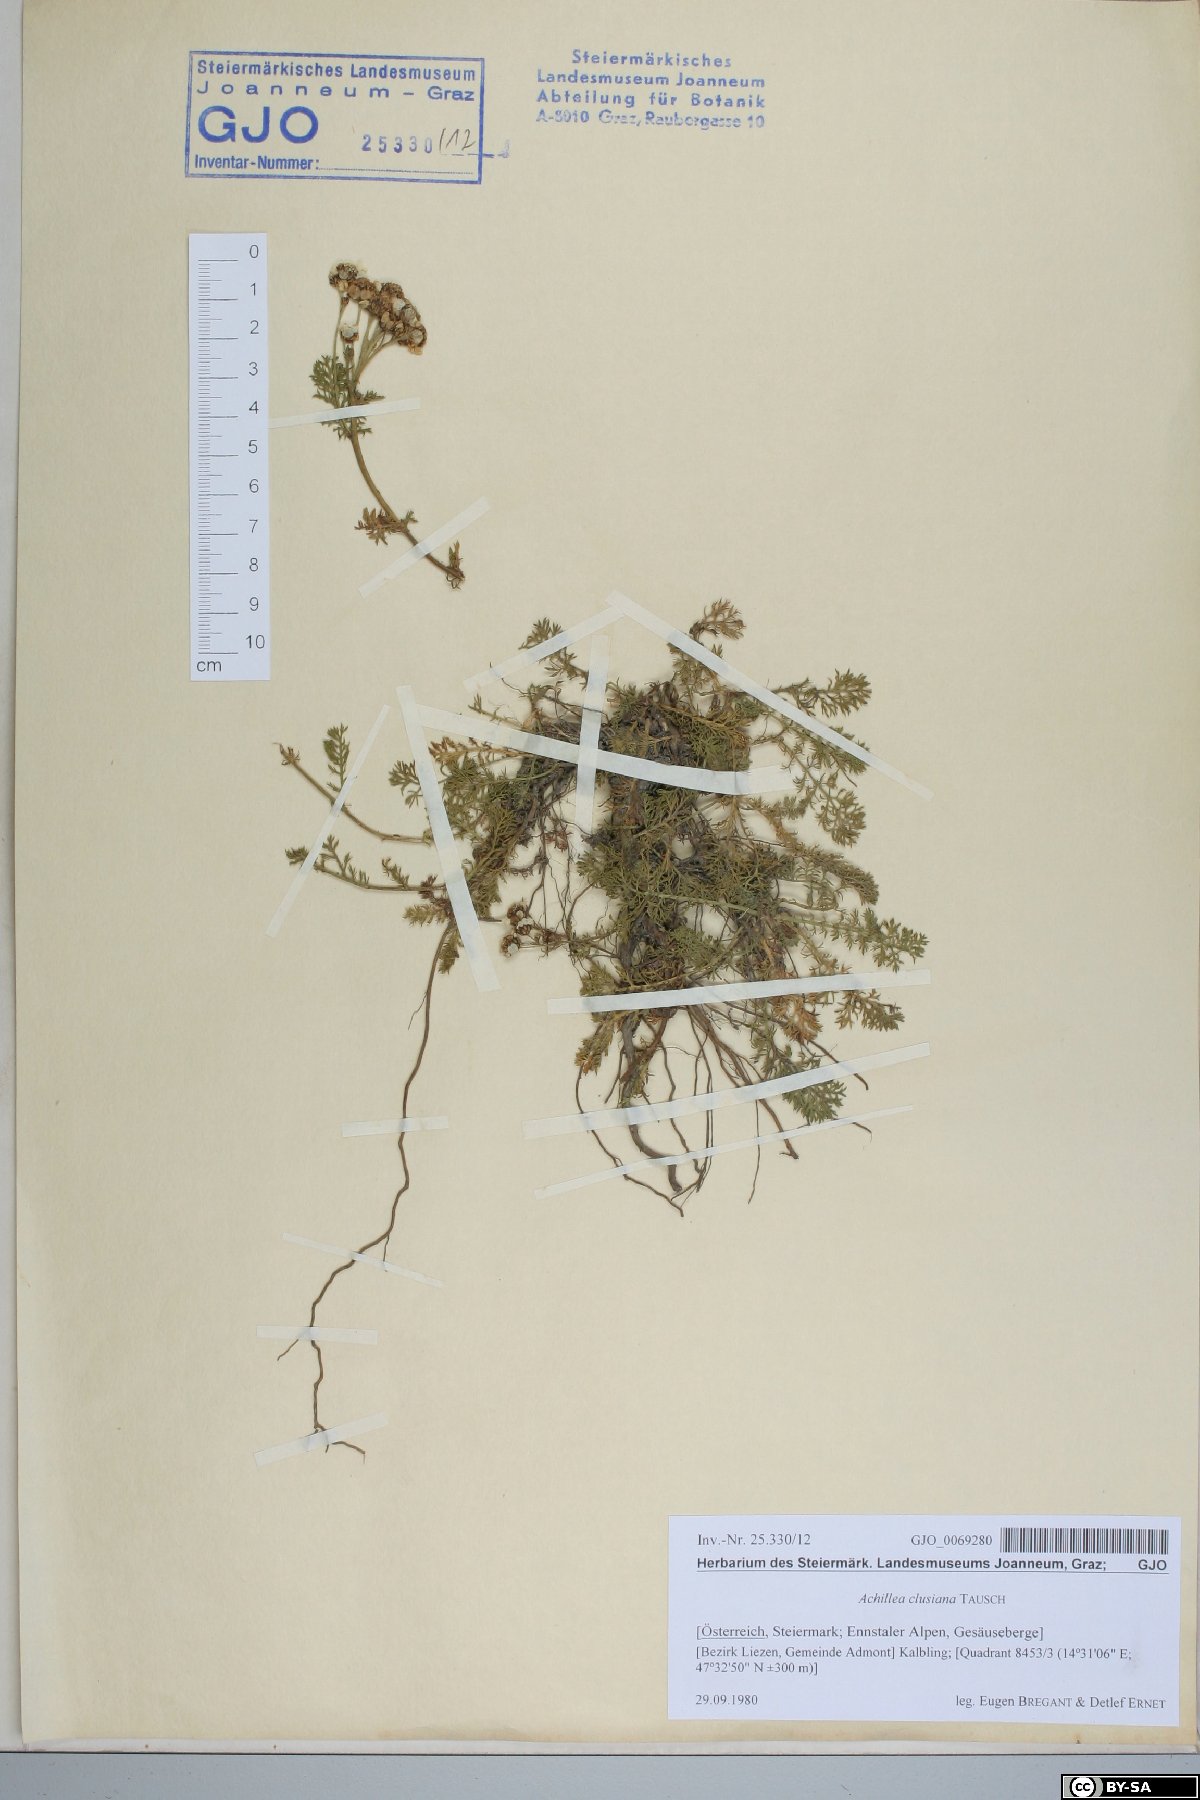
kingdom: Plantae
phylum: Tracheophyta
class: Magnoliopsida
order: Asterales
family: Asteraceae
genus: Achillea
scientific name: Achillea clusiana
